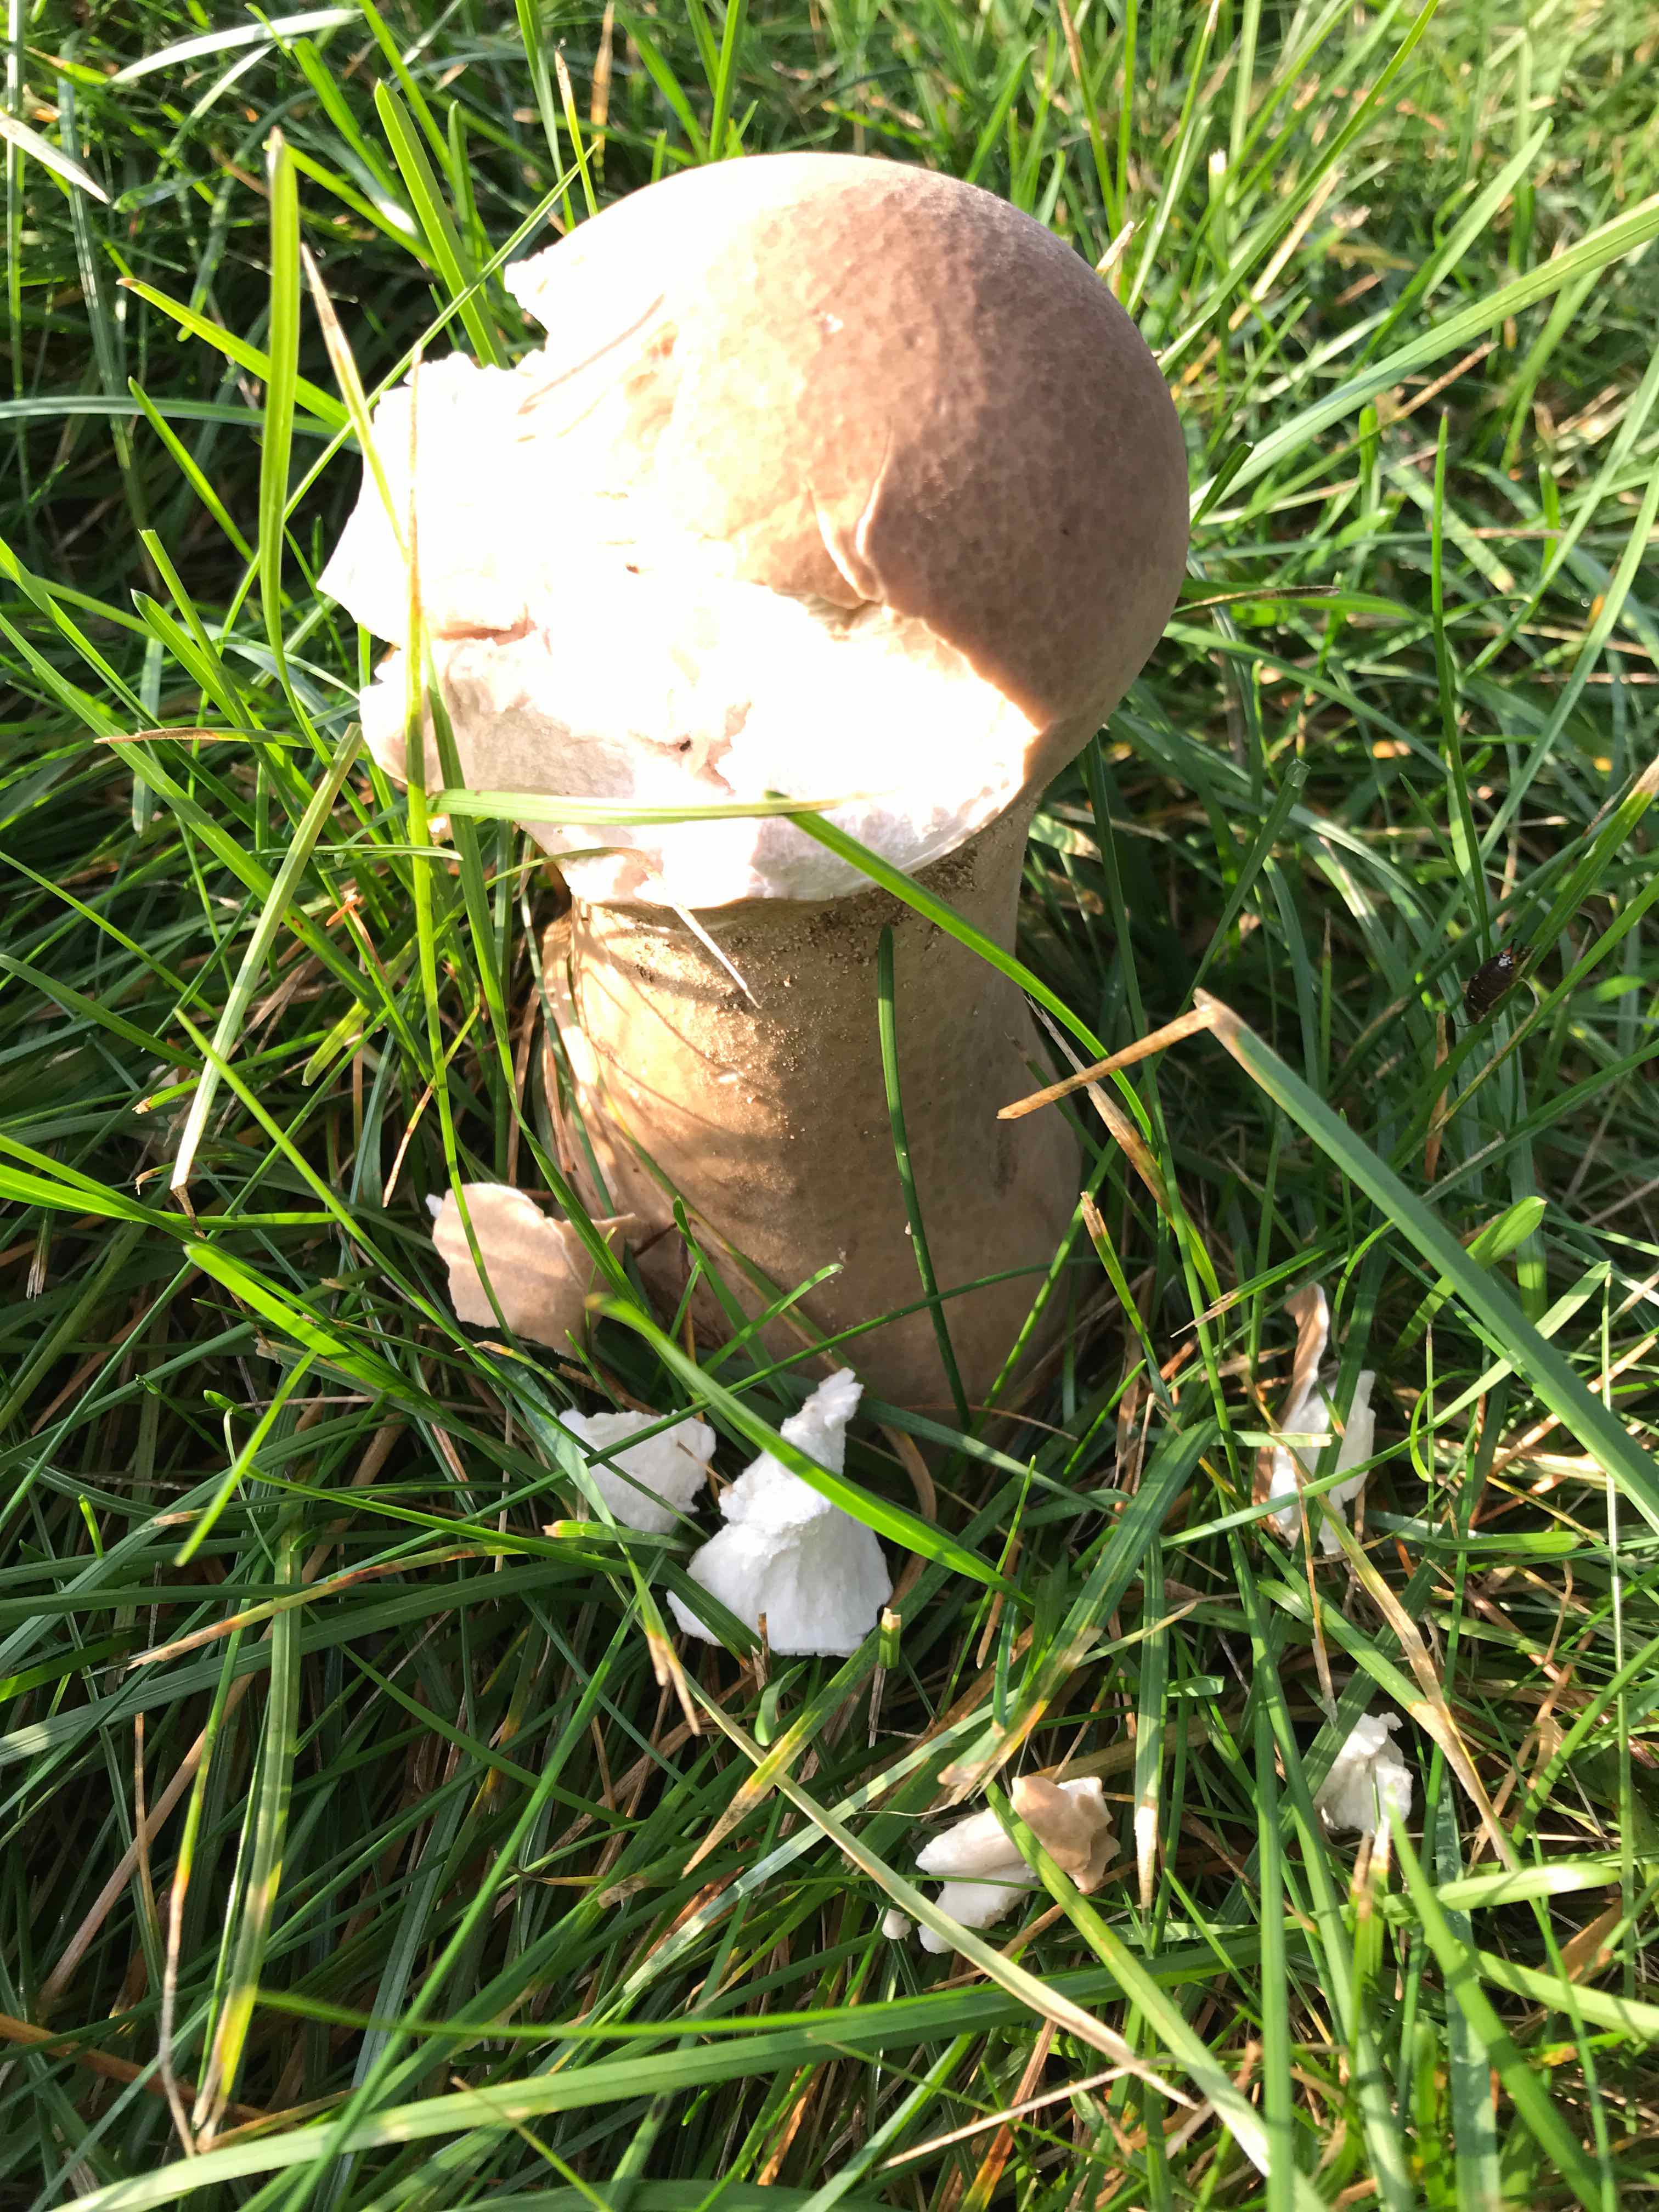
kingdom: Fungi
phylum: Basidiomycota
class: Agaricomycetes
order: Agaricales
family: Lycoperdaceae
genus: Lycoperdon
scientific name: Lycoperdon excipuliforme
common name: højstokket støvbold
